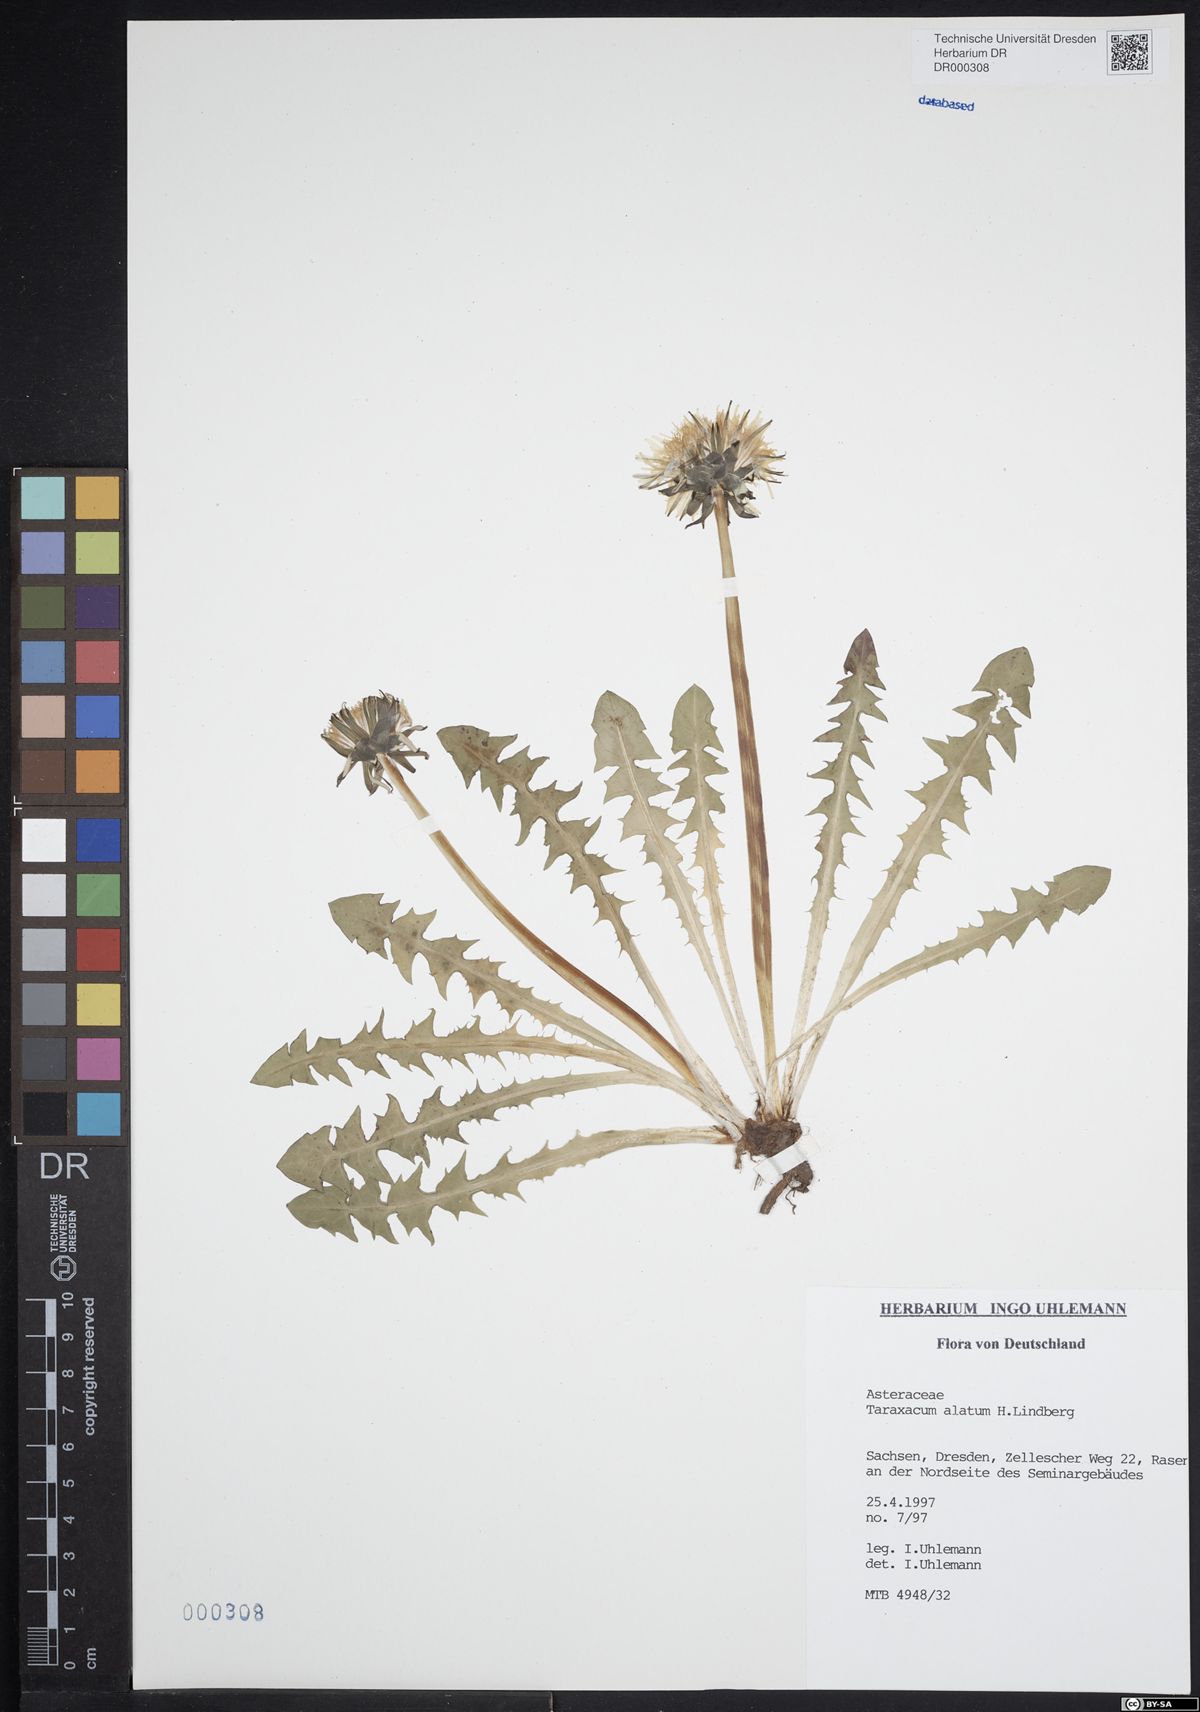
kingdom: Plantae
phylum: Tracheophyta
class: Magnoliopsida
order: Asterales
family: Asteraceae
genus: Taraxacum
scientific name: Taraxacum alatum
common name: Green dandelion
